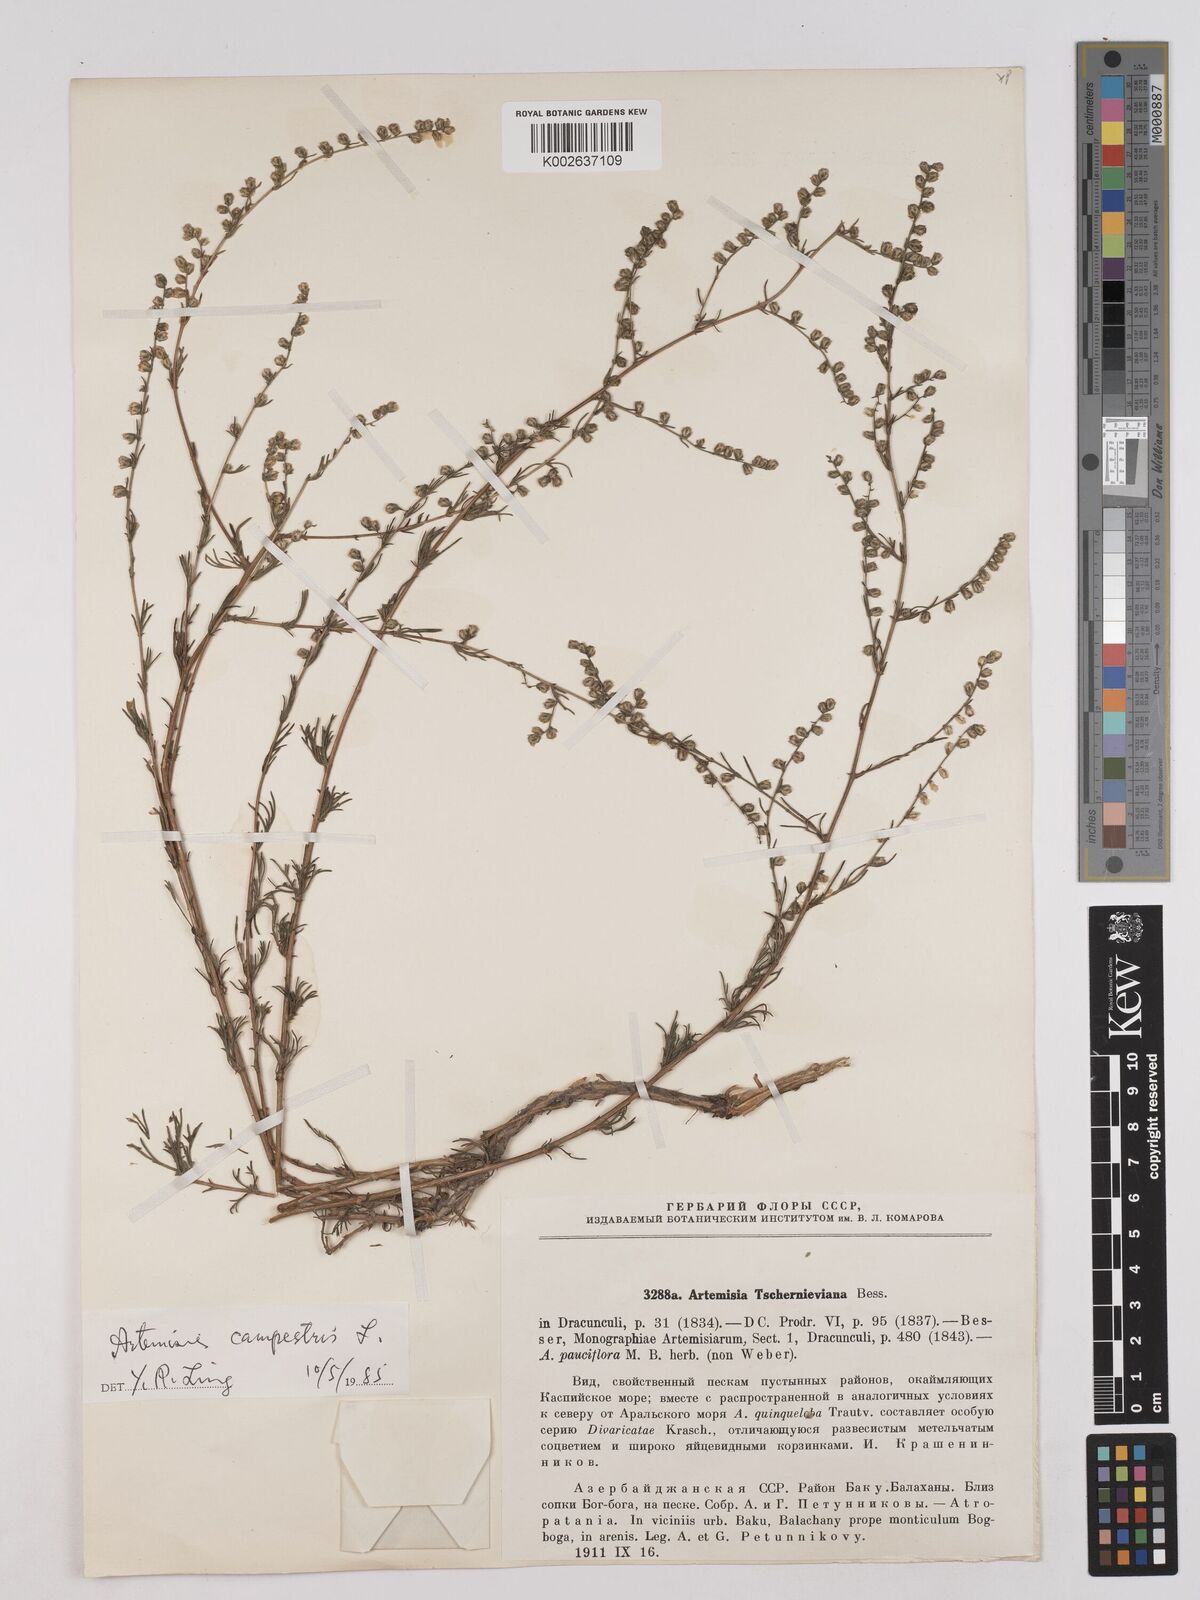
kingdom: Plantae
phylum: Tracheophyta
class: Magnoliopsida
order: Asterales
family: Asteraceae
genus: Artemisia
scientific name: Artemisia marschalliana
